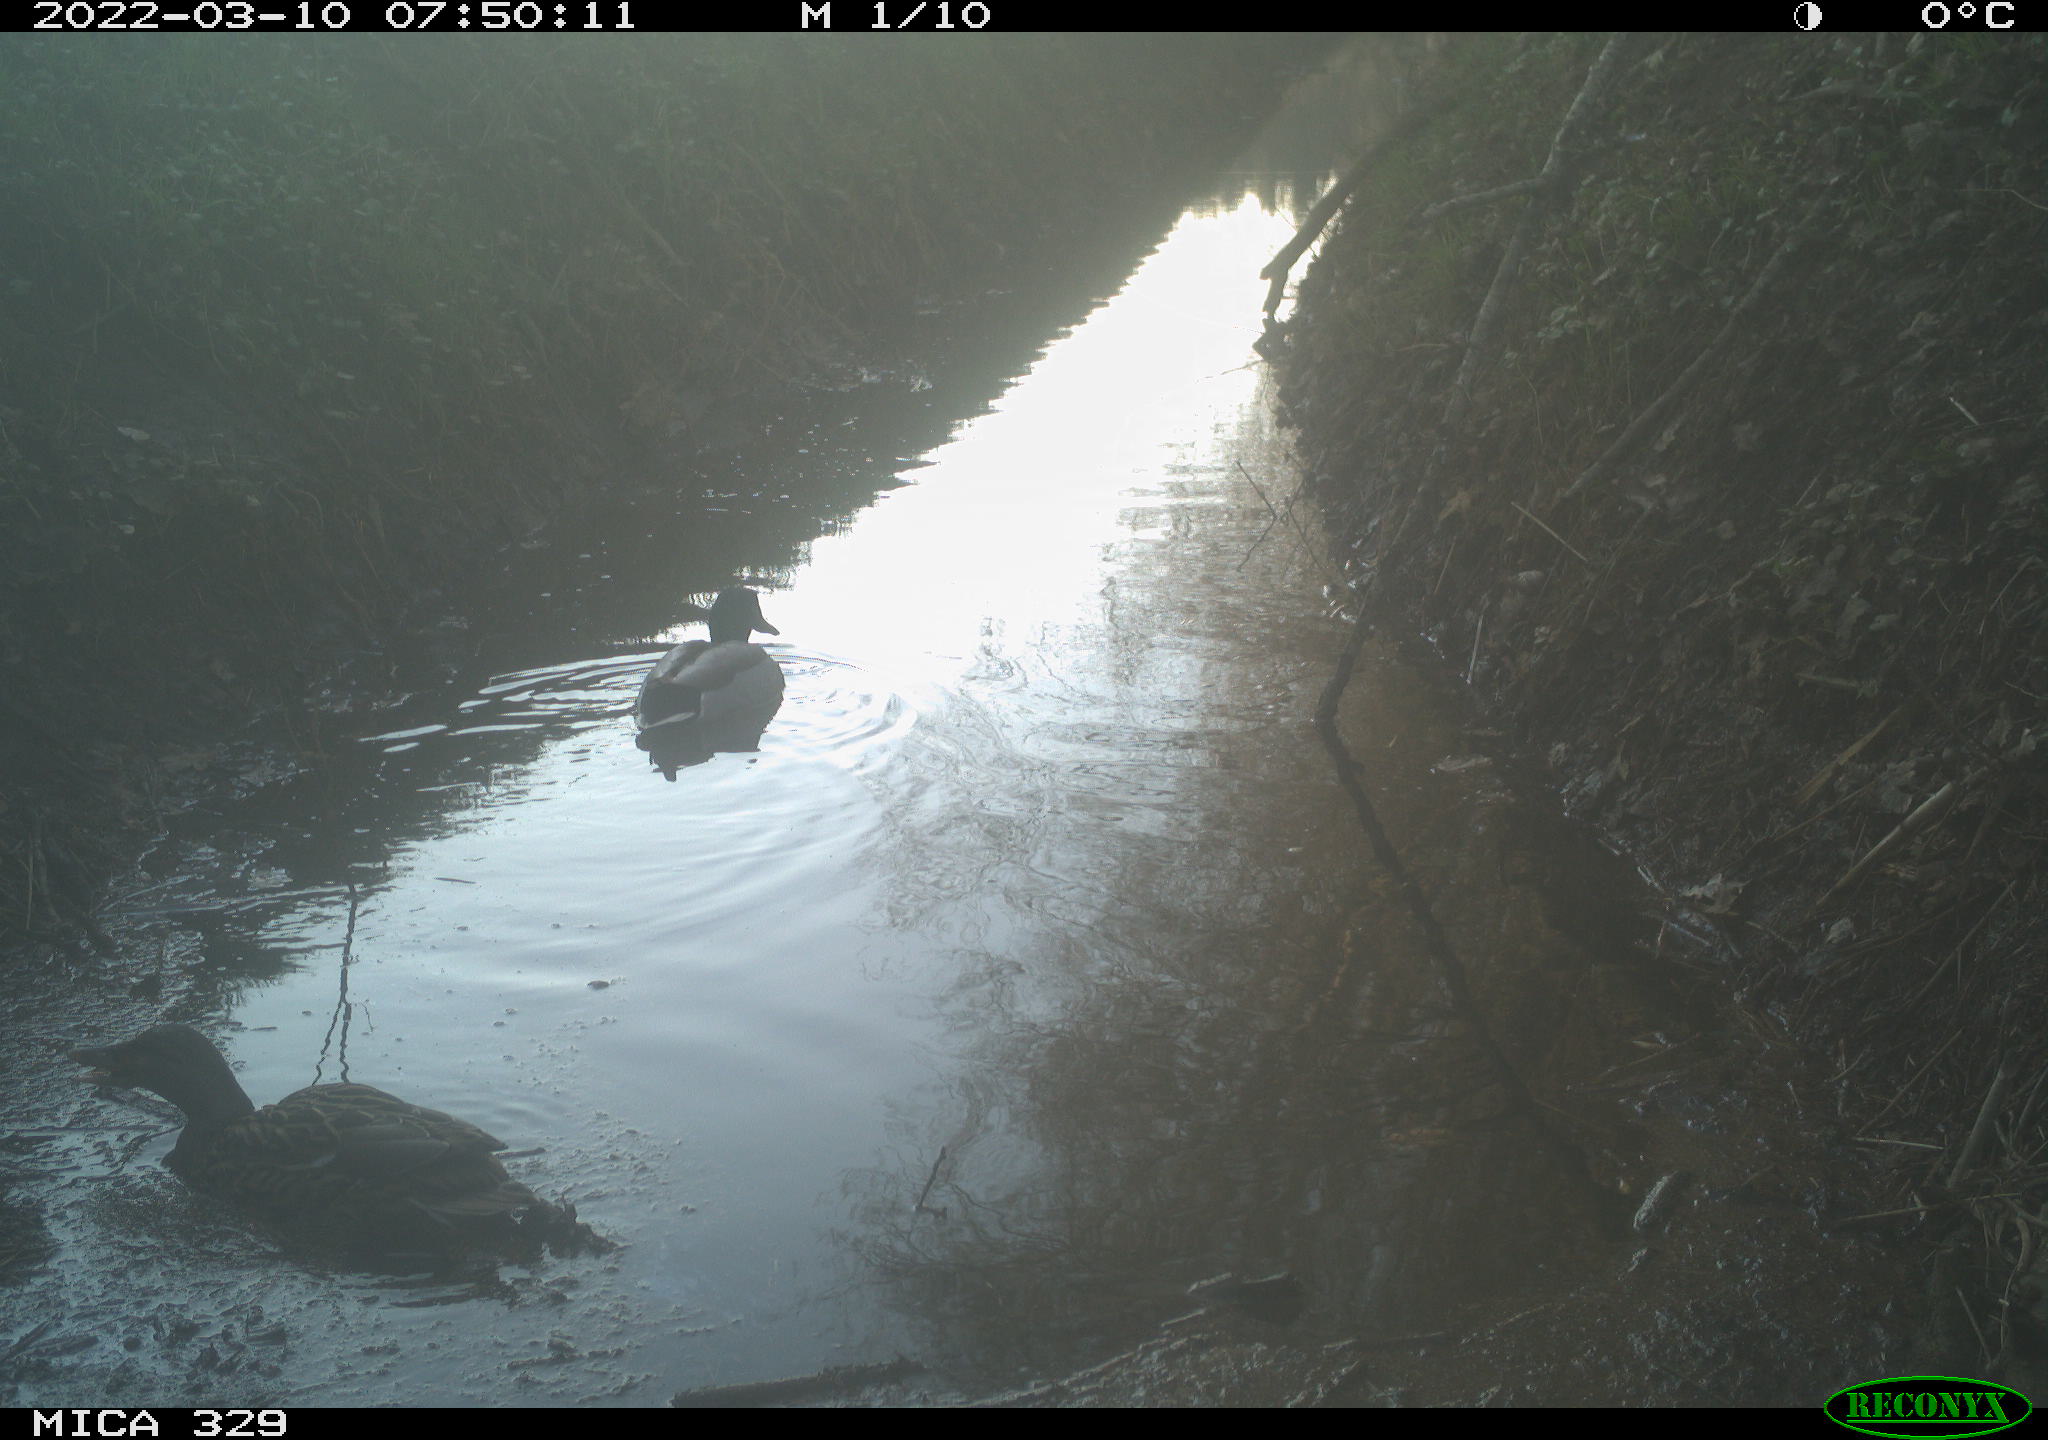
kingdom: Animalia
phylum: Chordata
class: Aves
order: Gruiformes
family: Rallidae
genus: Fulica
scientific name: Fulica atra
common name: Eurasian coot
